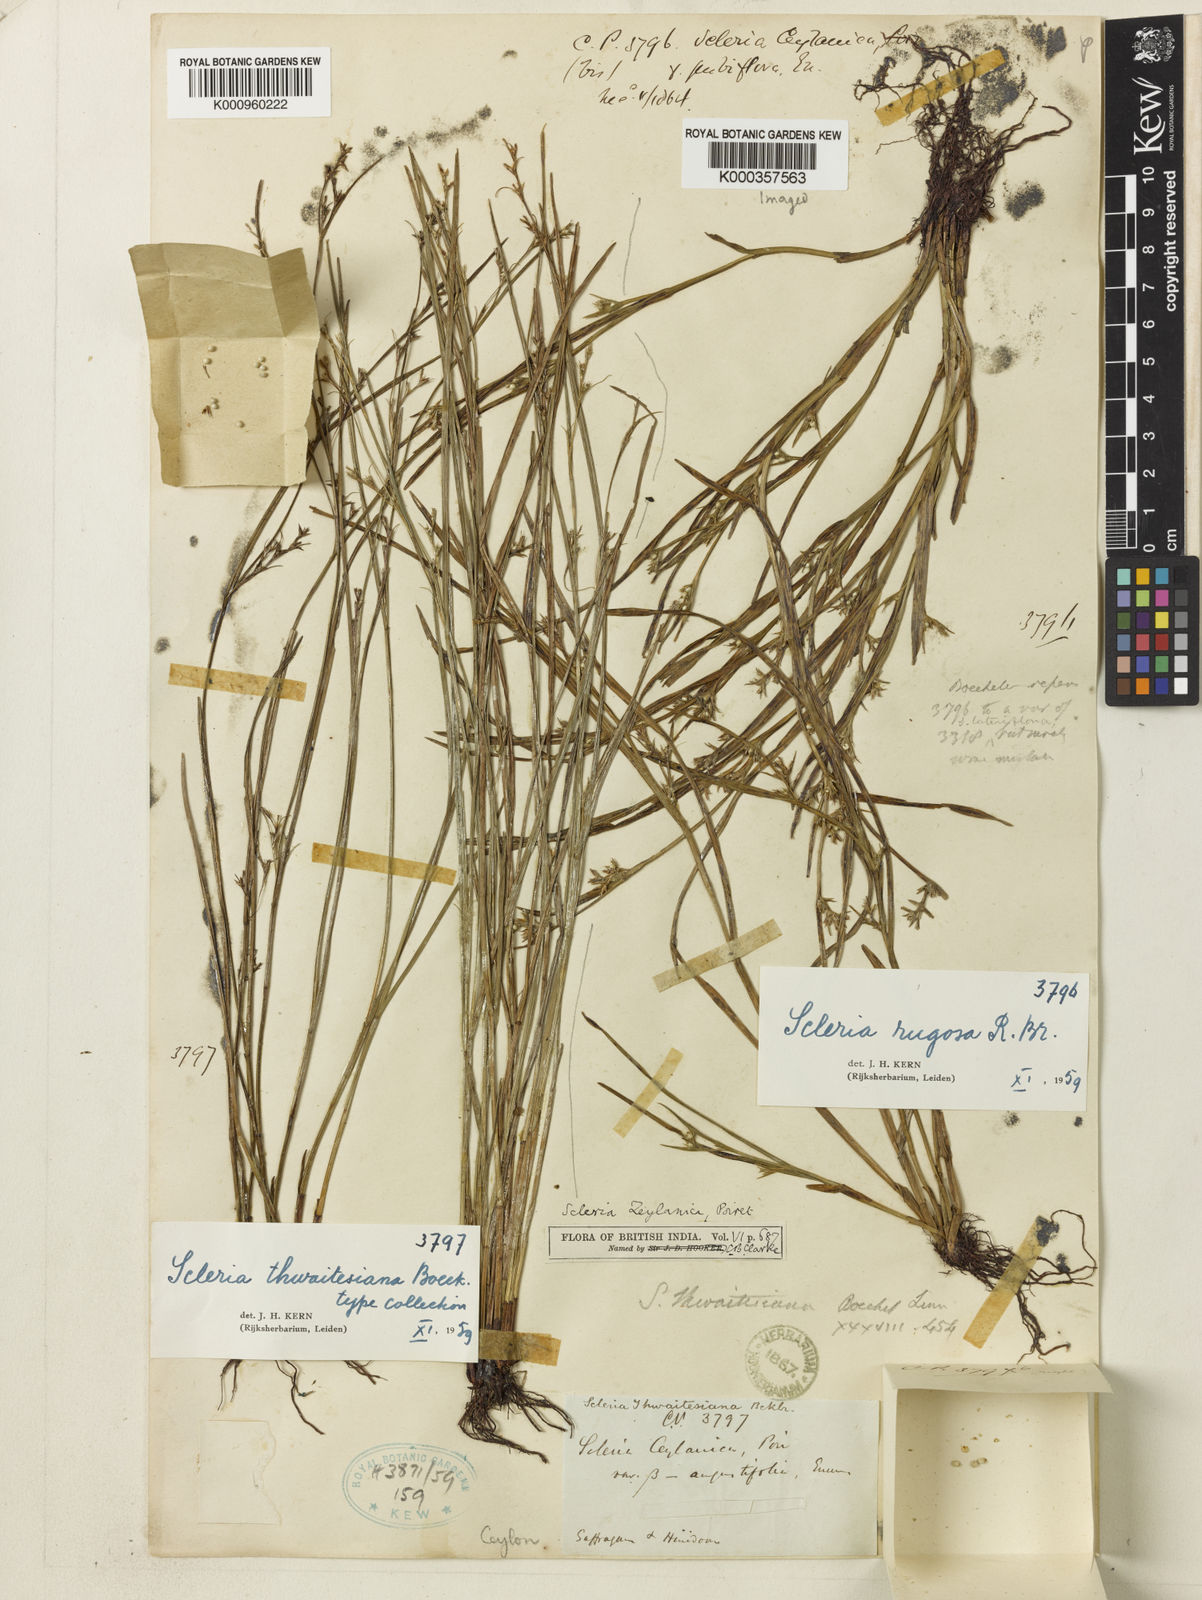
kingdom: Plantae
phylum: Tracheophyta
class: Liliopsida
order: Poales
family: Cyperaceae
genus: Scleria
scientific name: Scleria rugosa
